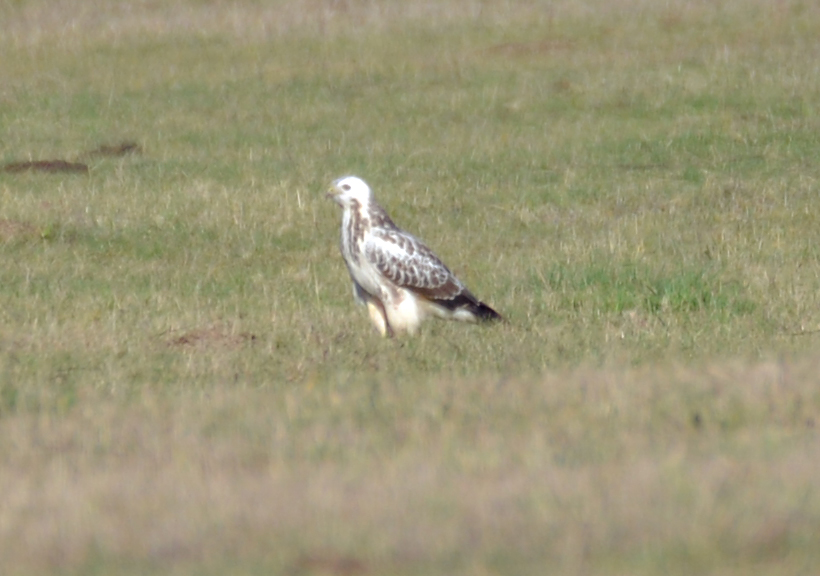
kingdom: Animalia
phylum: Chordata
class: Aves
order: Accipitriformes
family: Pandionidae
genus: Pandion
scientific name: Pandion haliaetus
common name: Osprey
